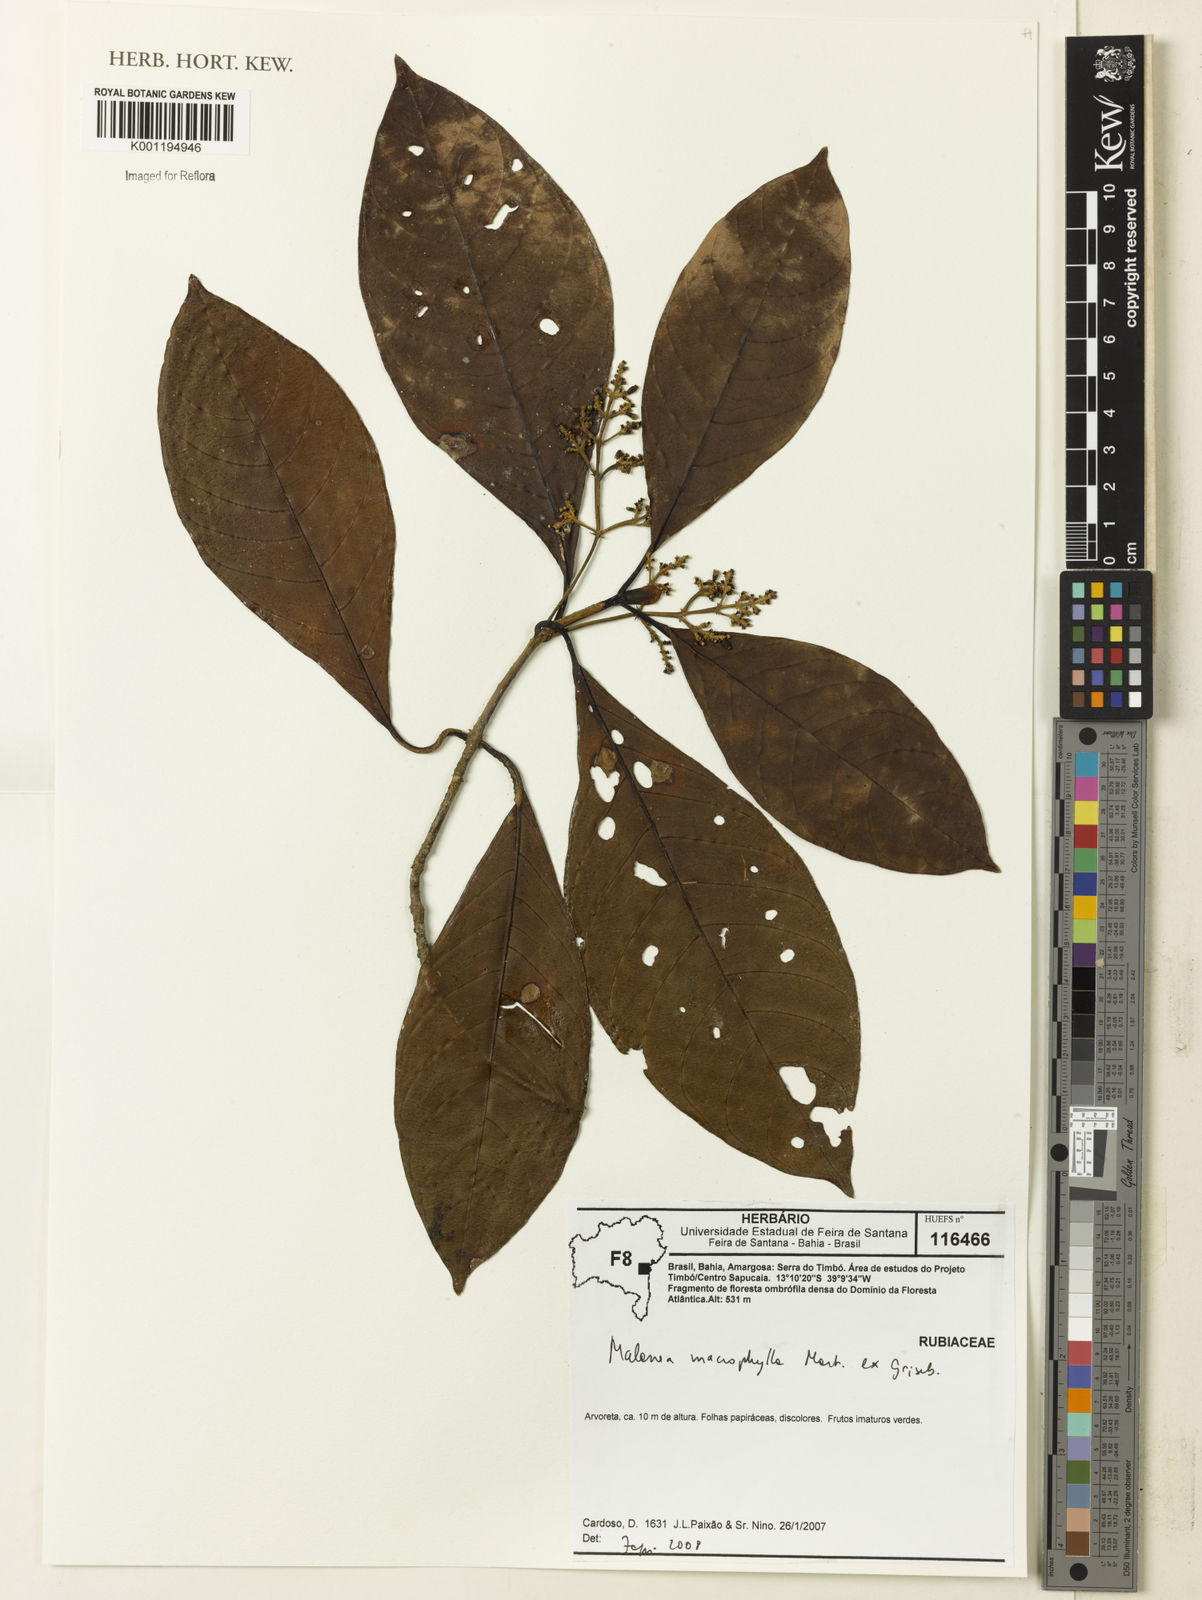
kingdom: Plantae
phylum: Tracheophyta
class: Magnoliopsida
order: Gentianales
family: Rubiaceae
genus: Malanea
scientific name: Malanea glabra
